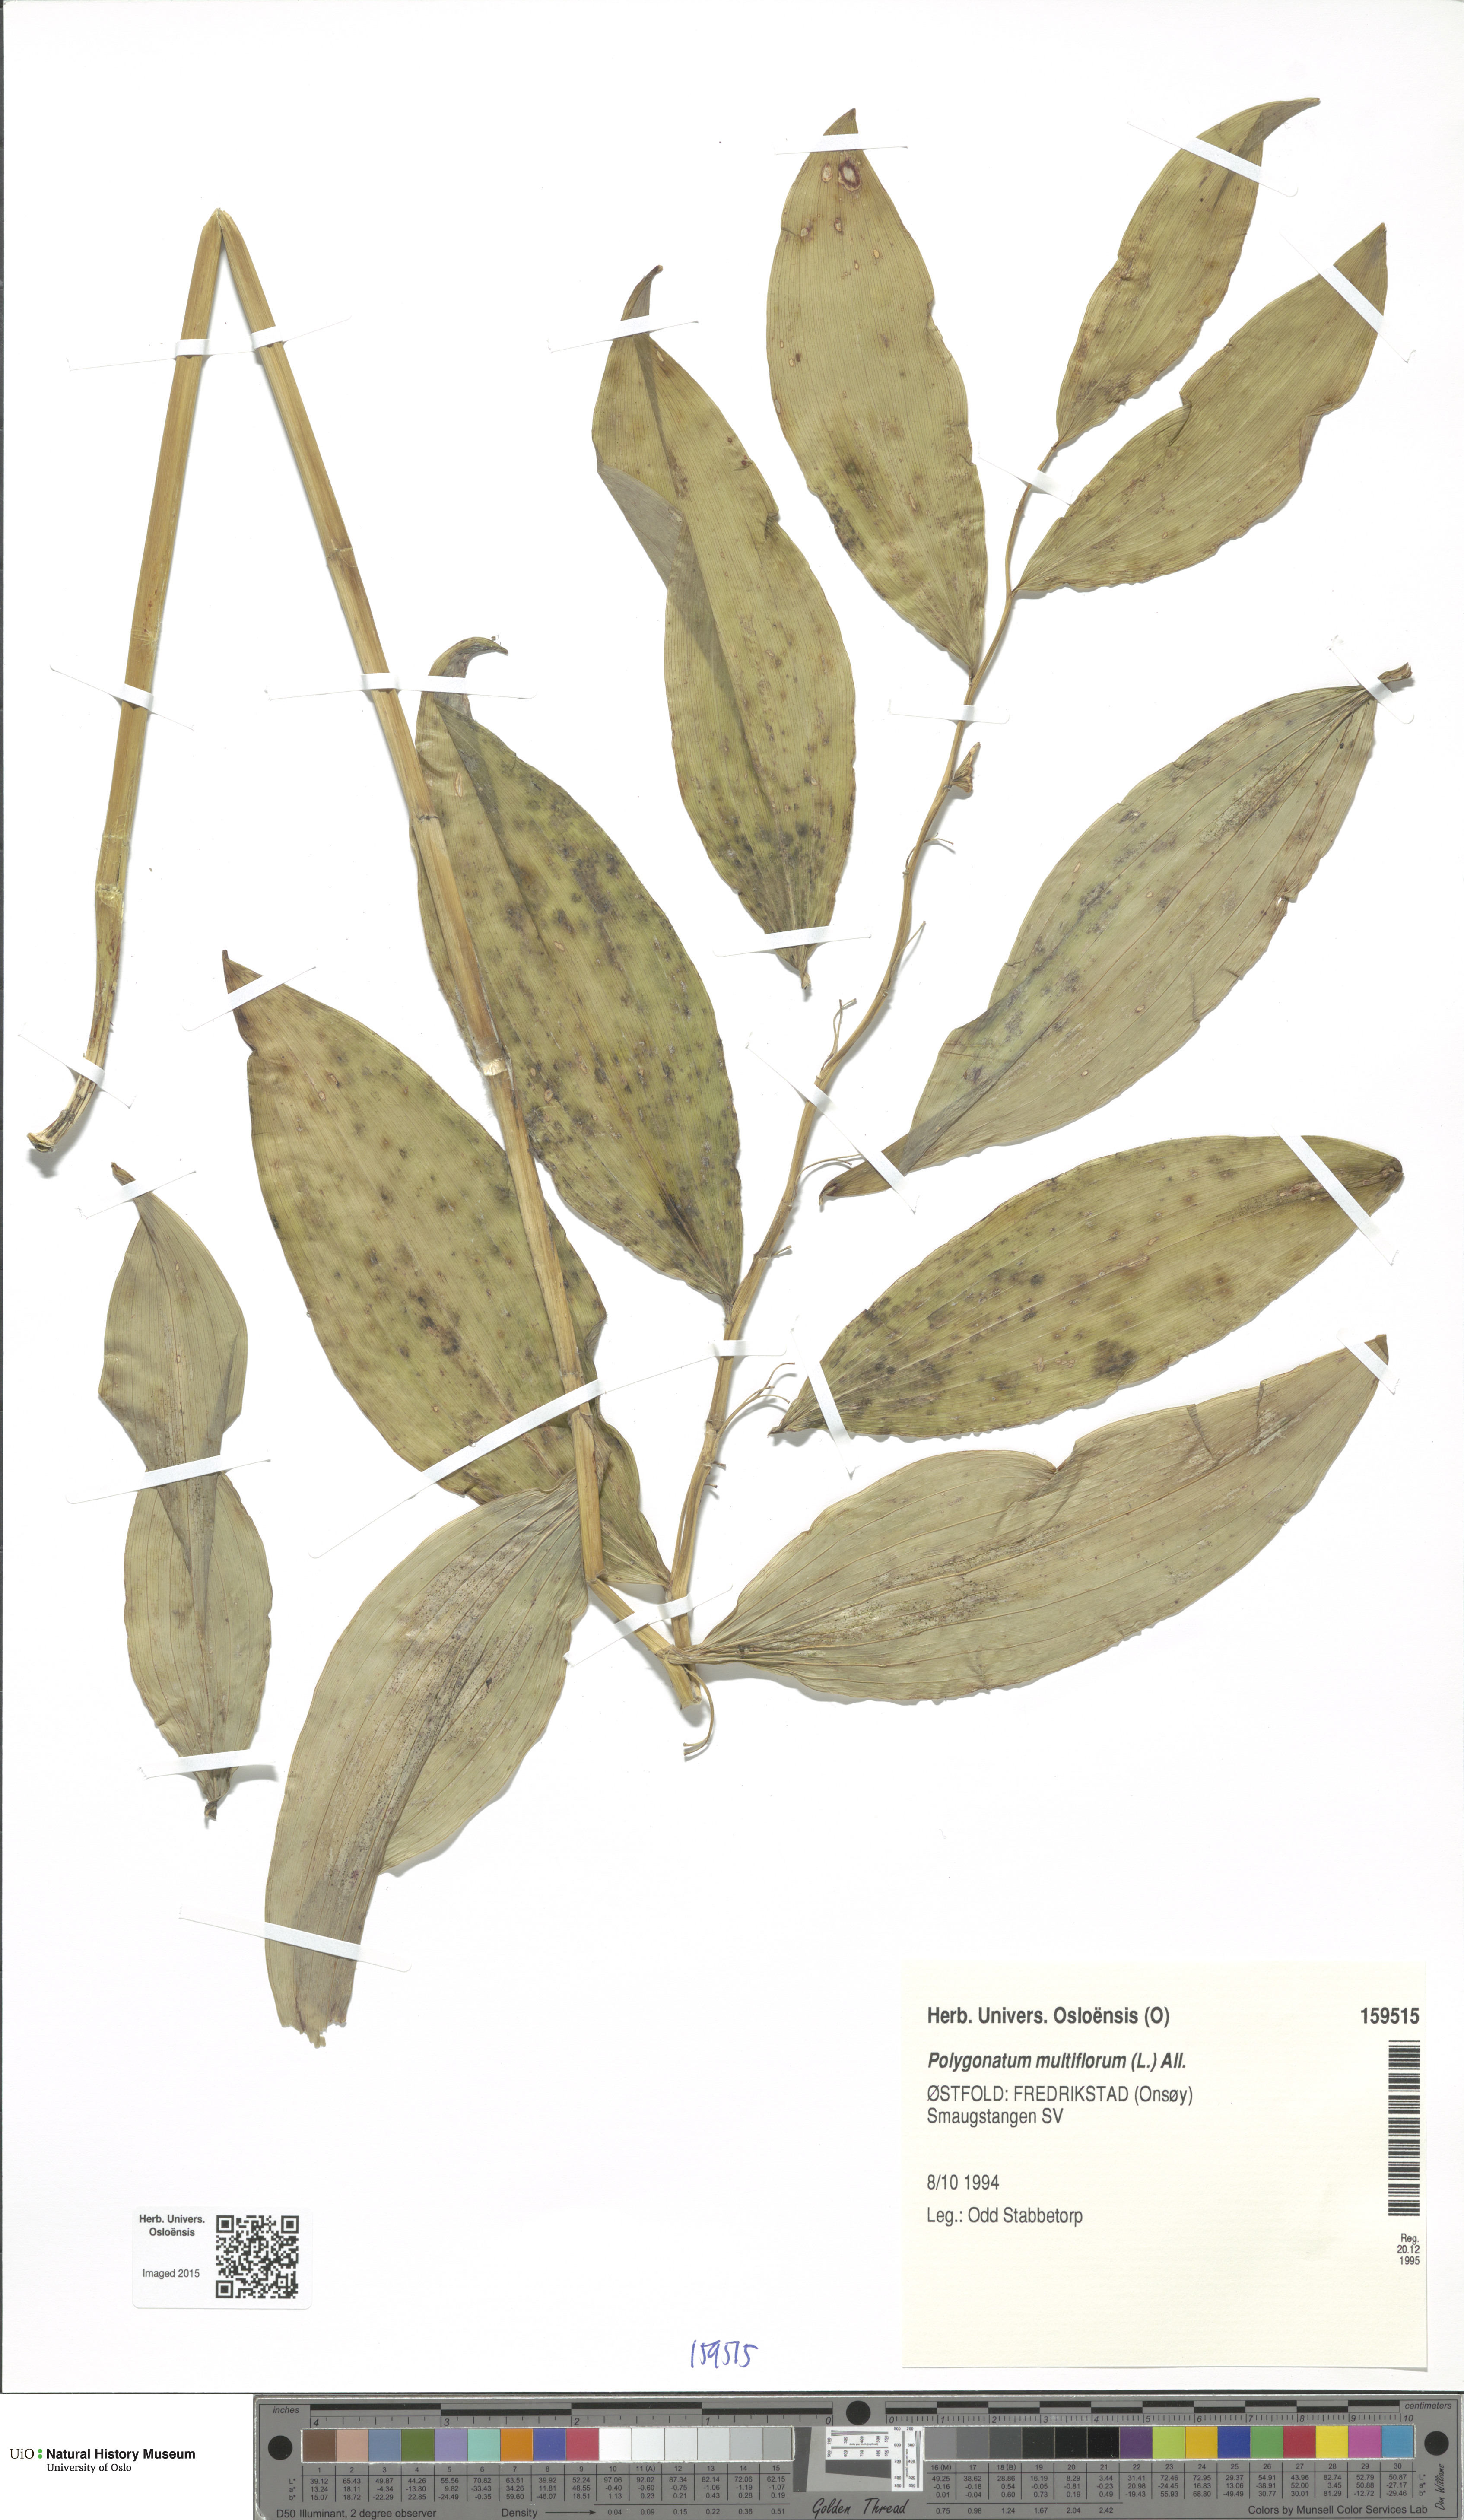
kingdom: Plantae
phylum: Tracheophyta
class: Liliopsida
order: Asparagales
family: Asparagaceae
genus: Polygonatum
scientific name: Polygonatum multiflorum
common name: Solomon's-seal
